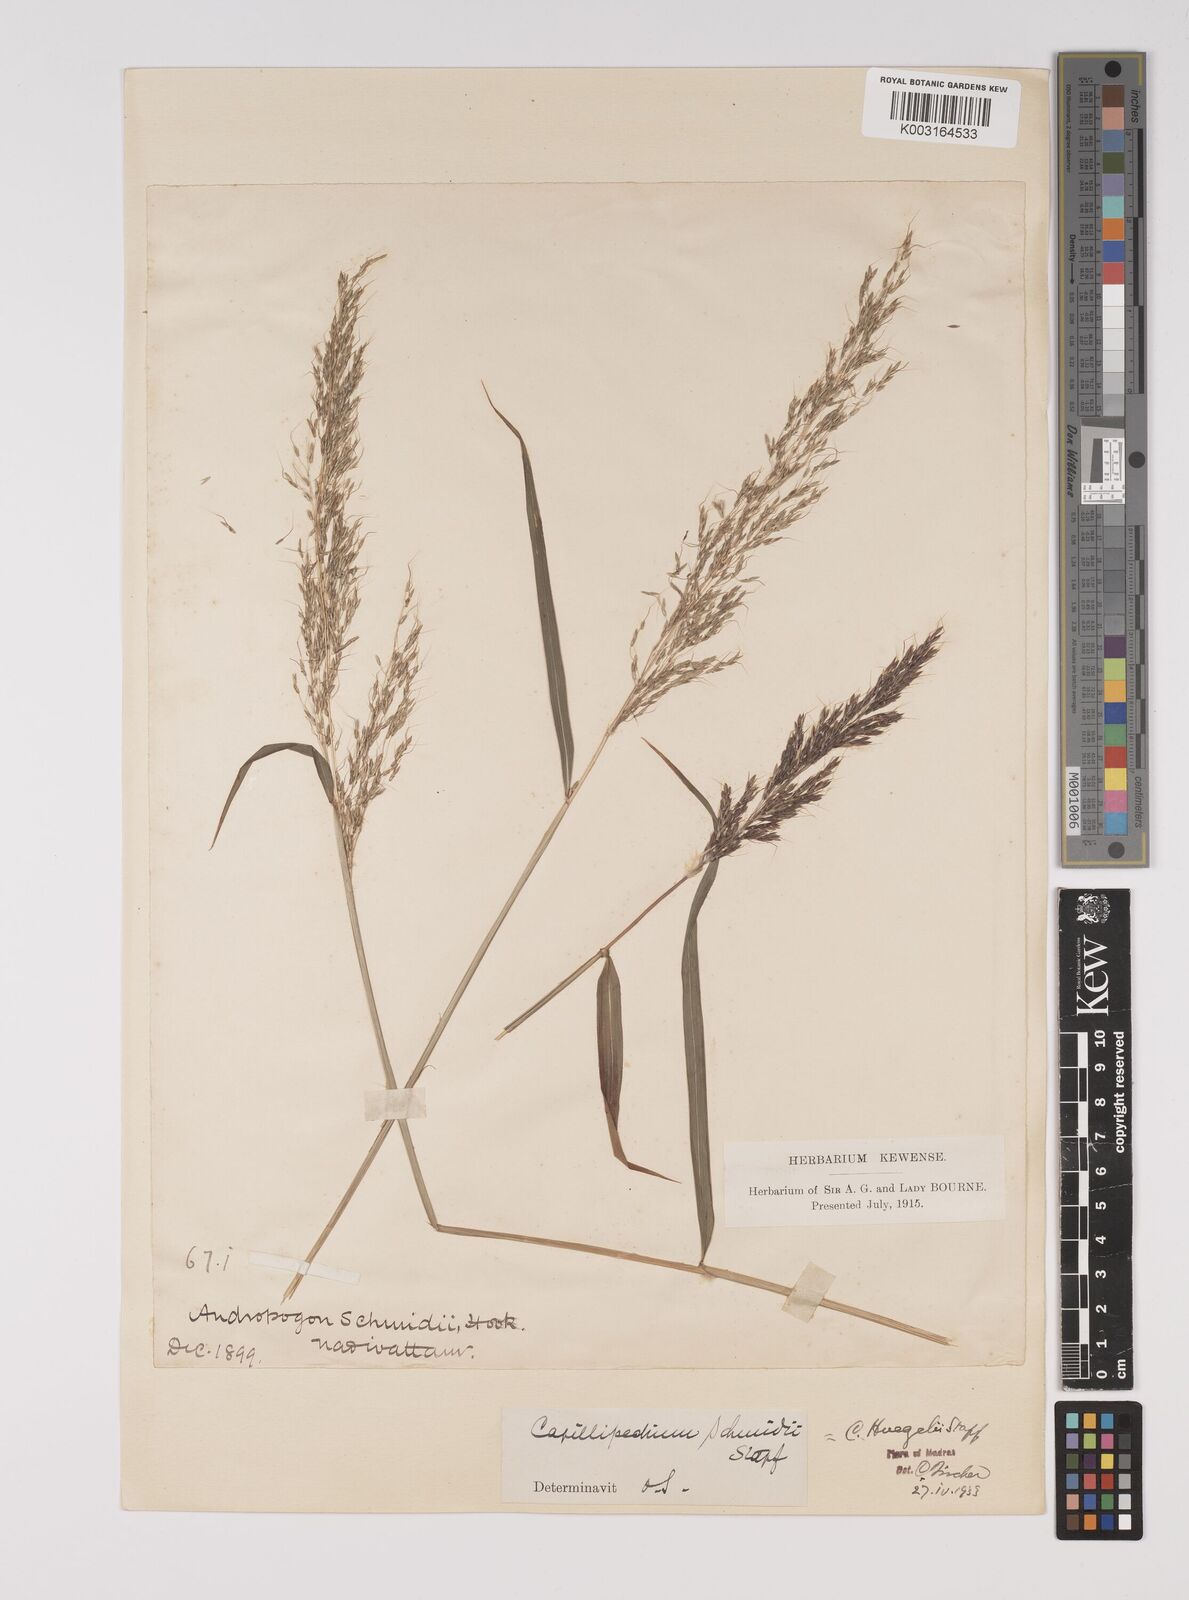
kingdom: Plantae
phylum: Tracheophyta
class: Liliopsida
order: Poales
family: Poaceae
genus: Capillipedium
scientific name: Capillipedium huegelii
